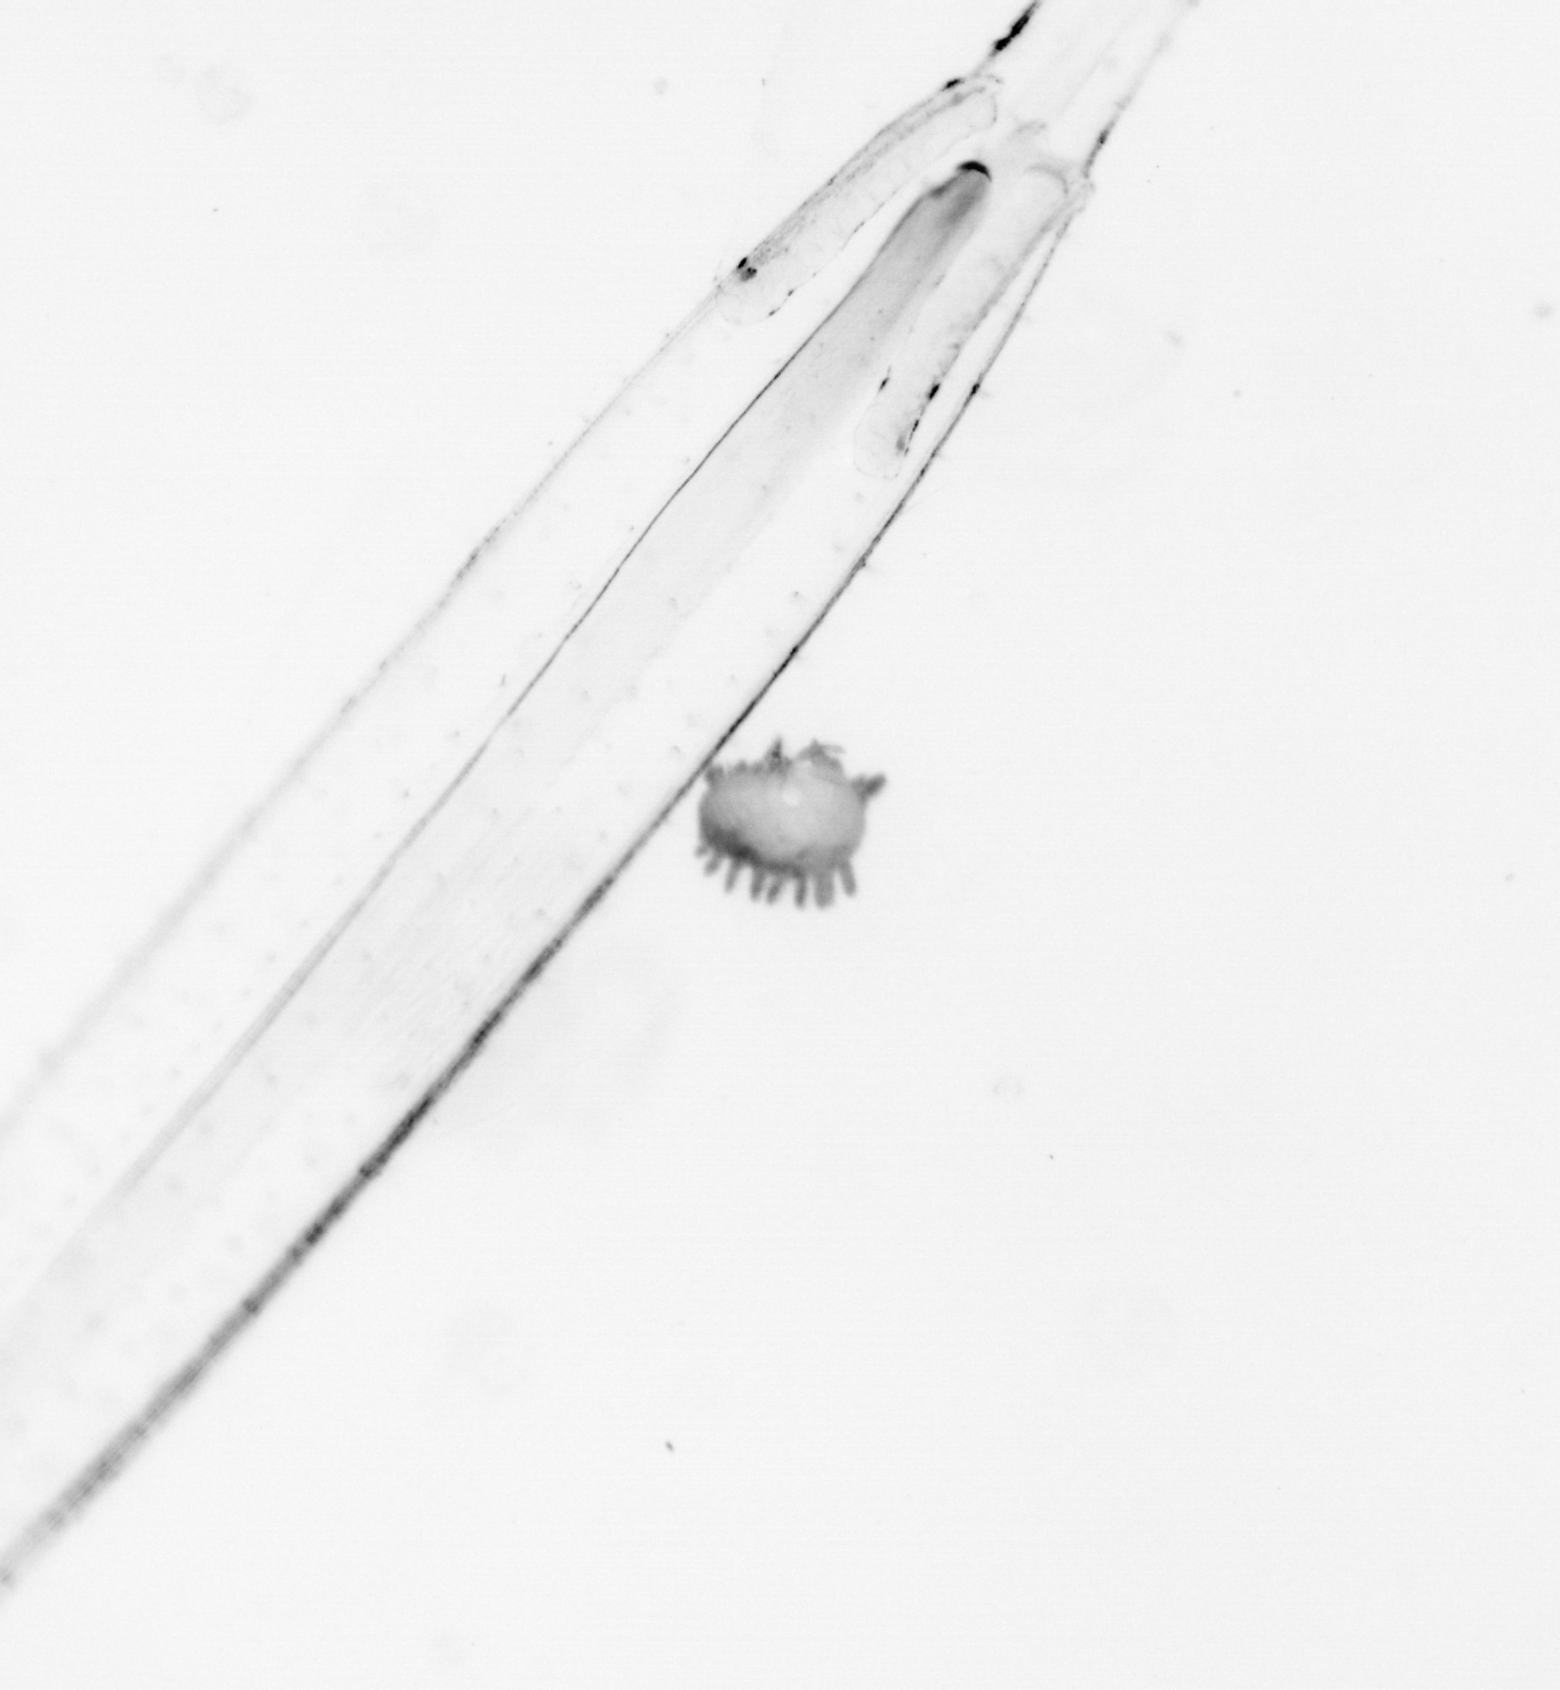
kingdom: Animalia
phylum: Chaetognatha
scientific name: Chaetognatha
